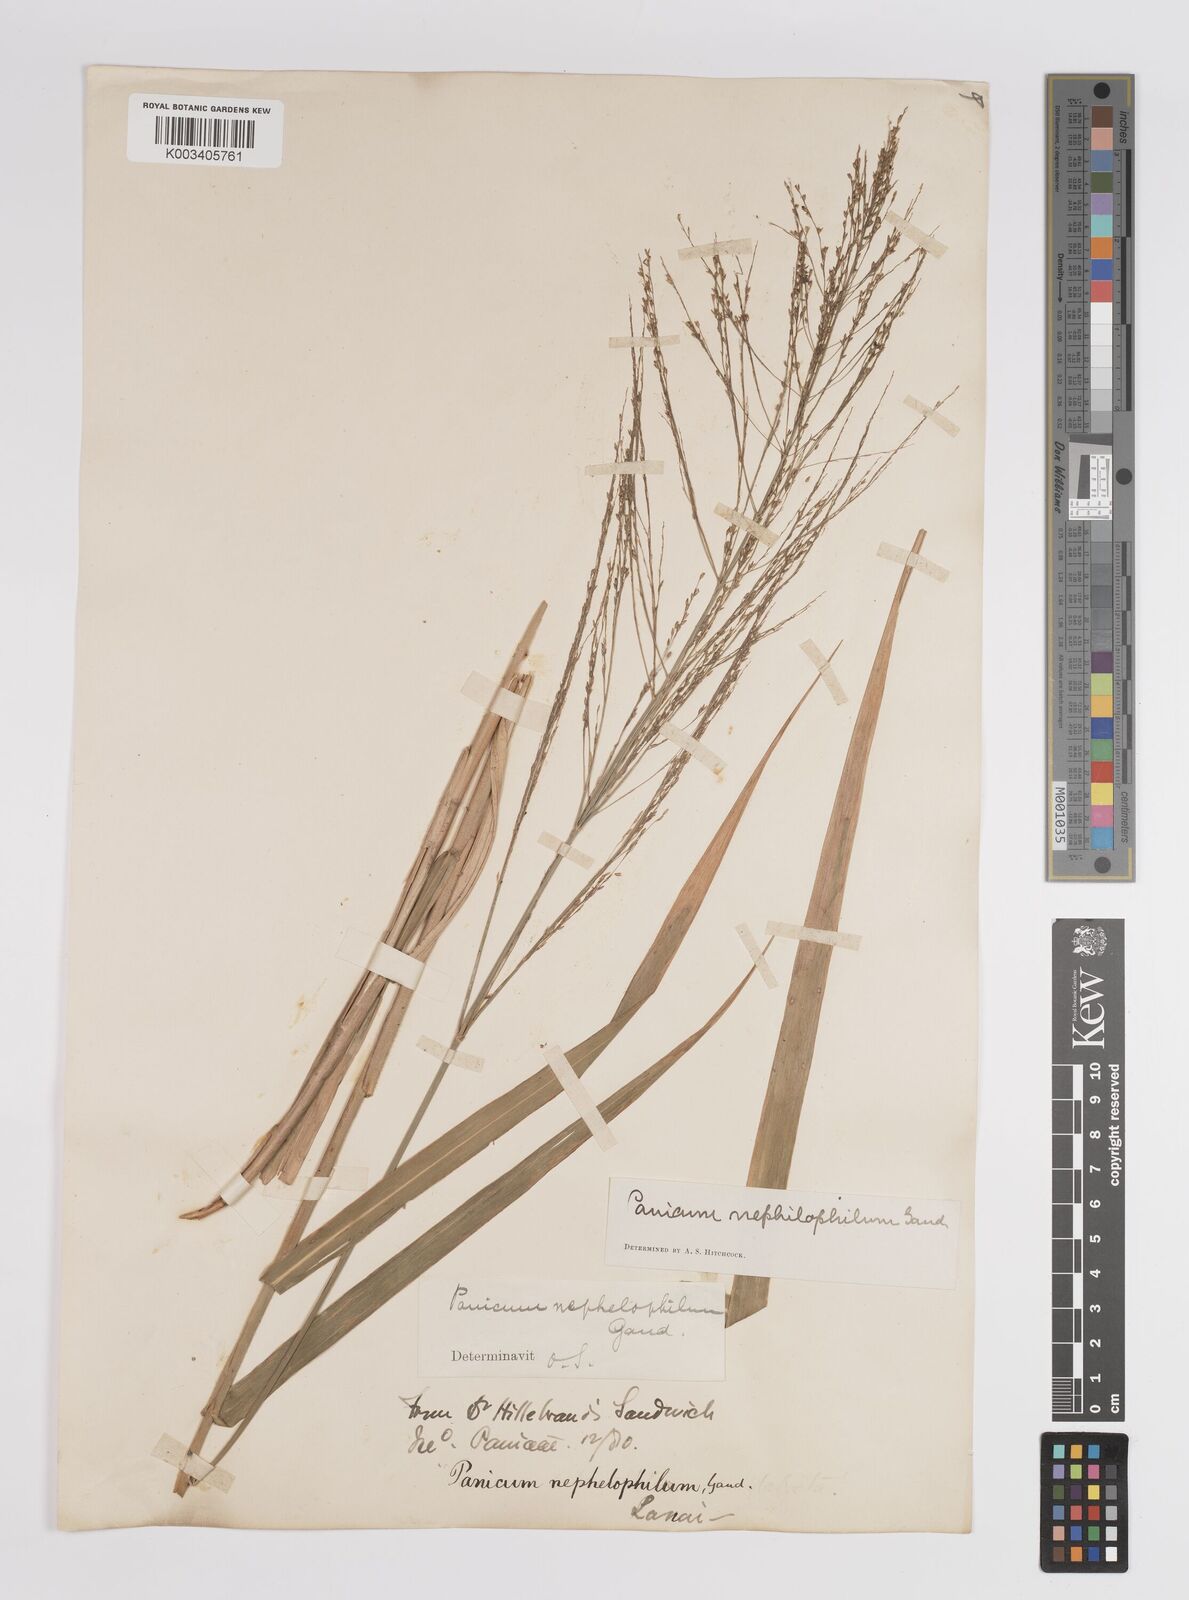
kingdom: Plantae
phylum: Tracheophyta
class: Liliopsida
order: Poales
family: Poaceae
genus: Panicum
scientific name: Panicum nephelophilum
